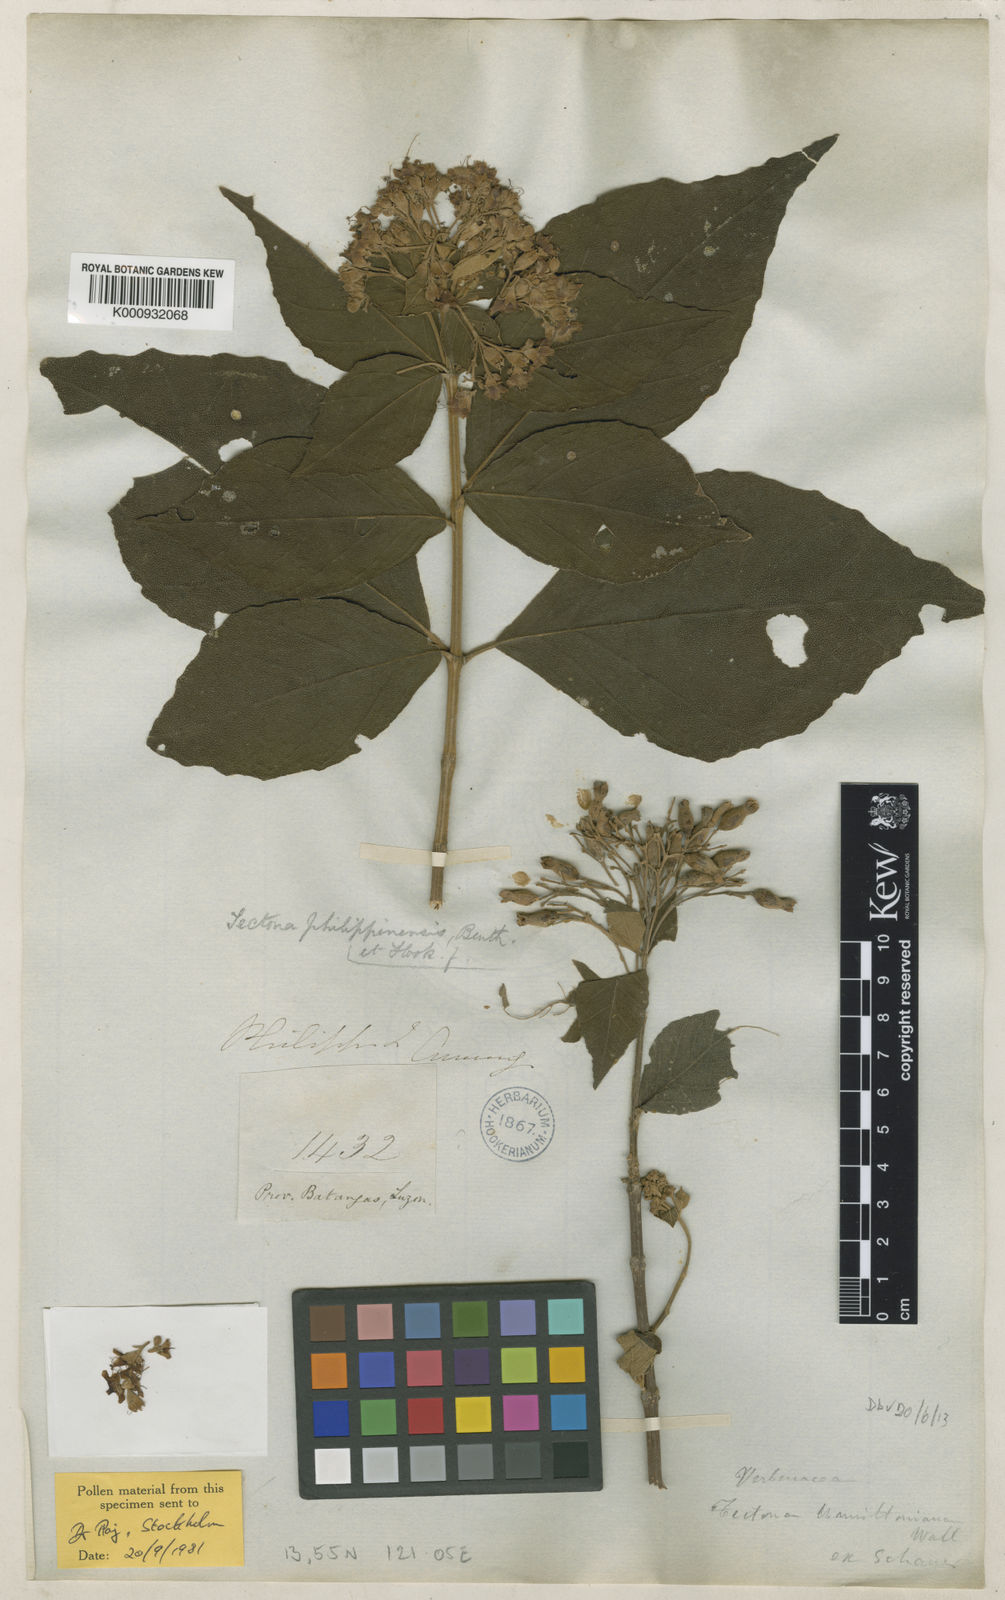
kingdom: Plantae
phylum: Tracheophyta
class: Magnoliopsida
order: Lamiales
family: Lamiaceae
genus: Tectona
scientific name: Tectona
